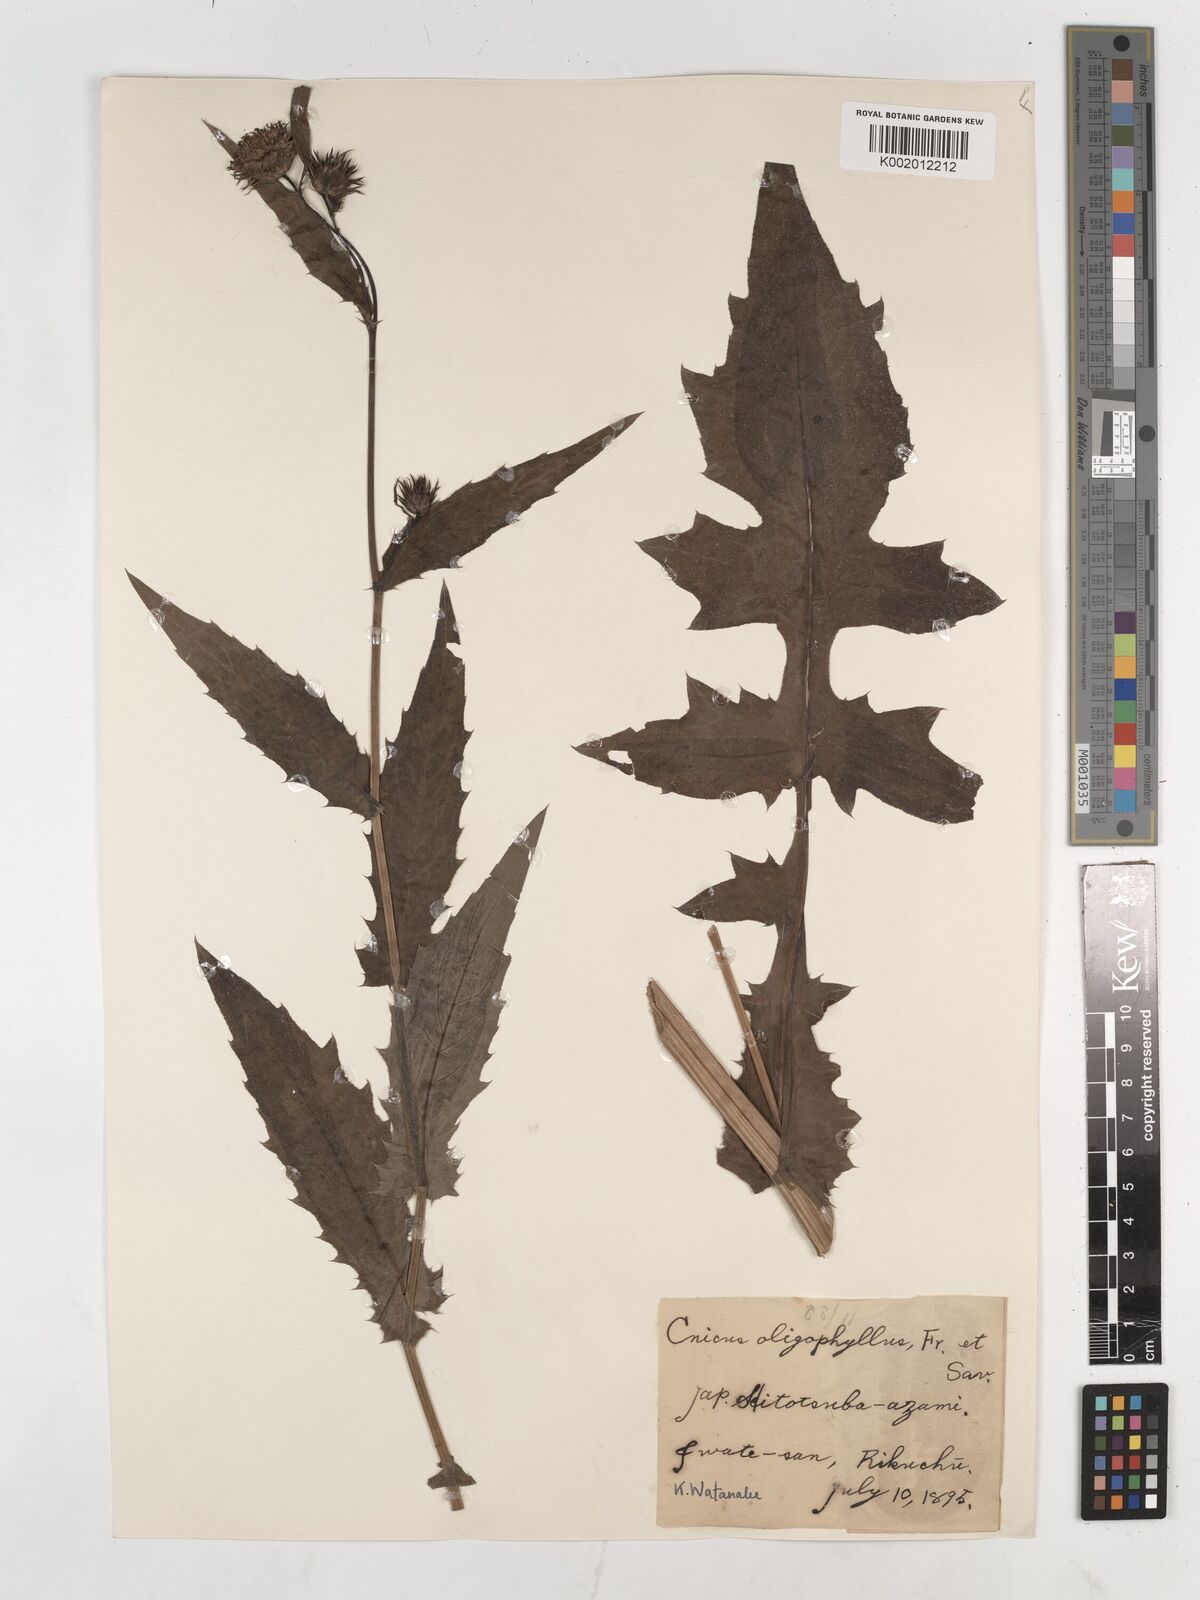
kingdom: Plantae
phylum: Tracheophyta
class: Magnoliopsida
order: Asterales
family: Asteraceae
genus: Cirsium
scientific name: Cirsium oligophyllum
